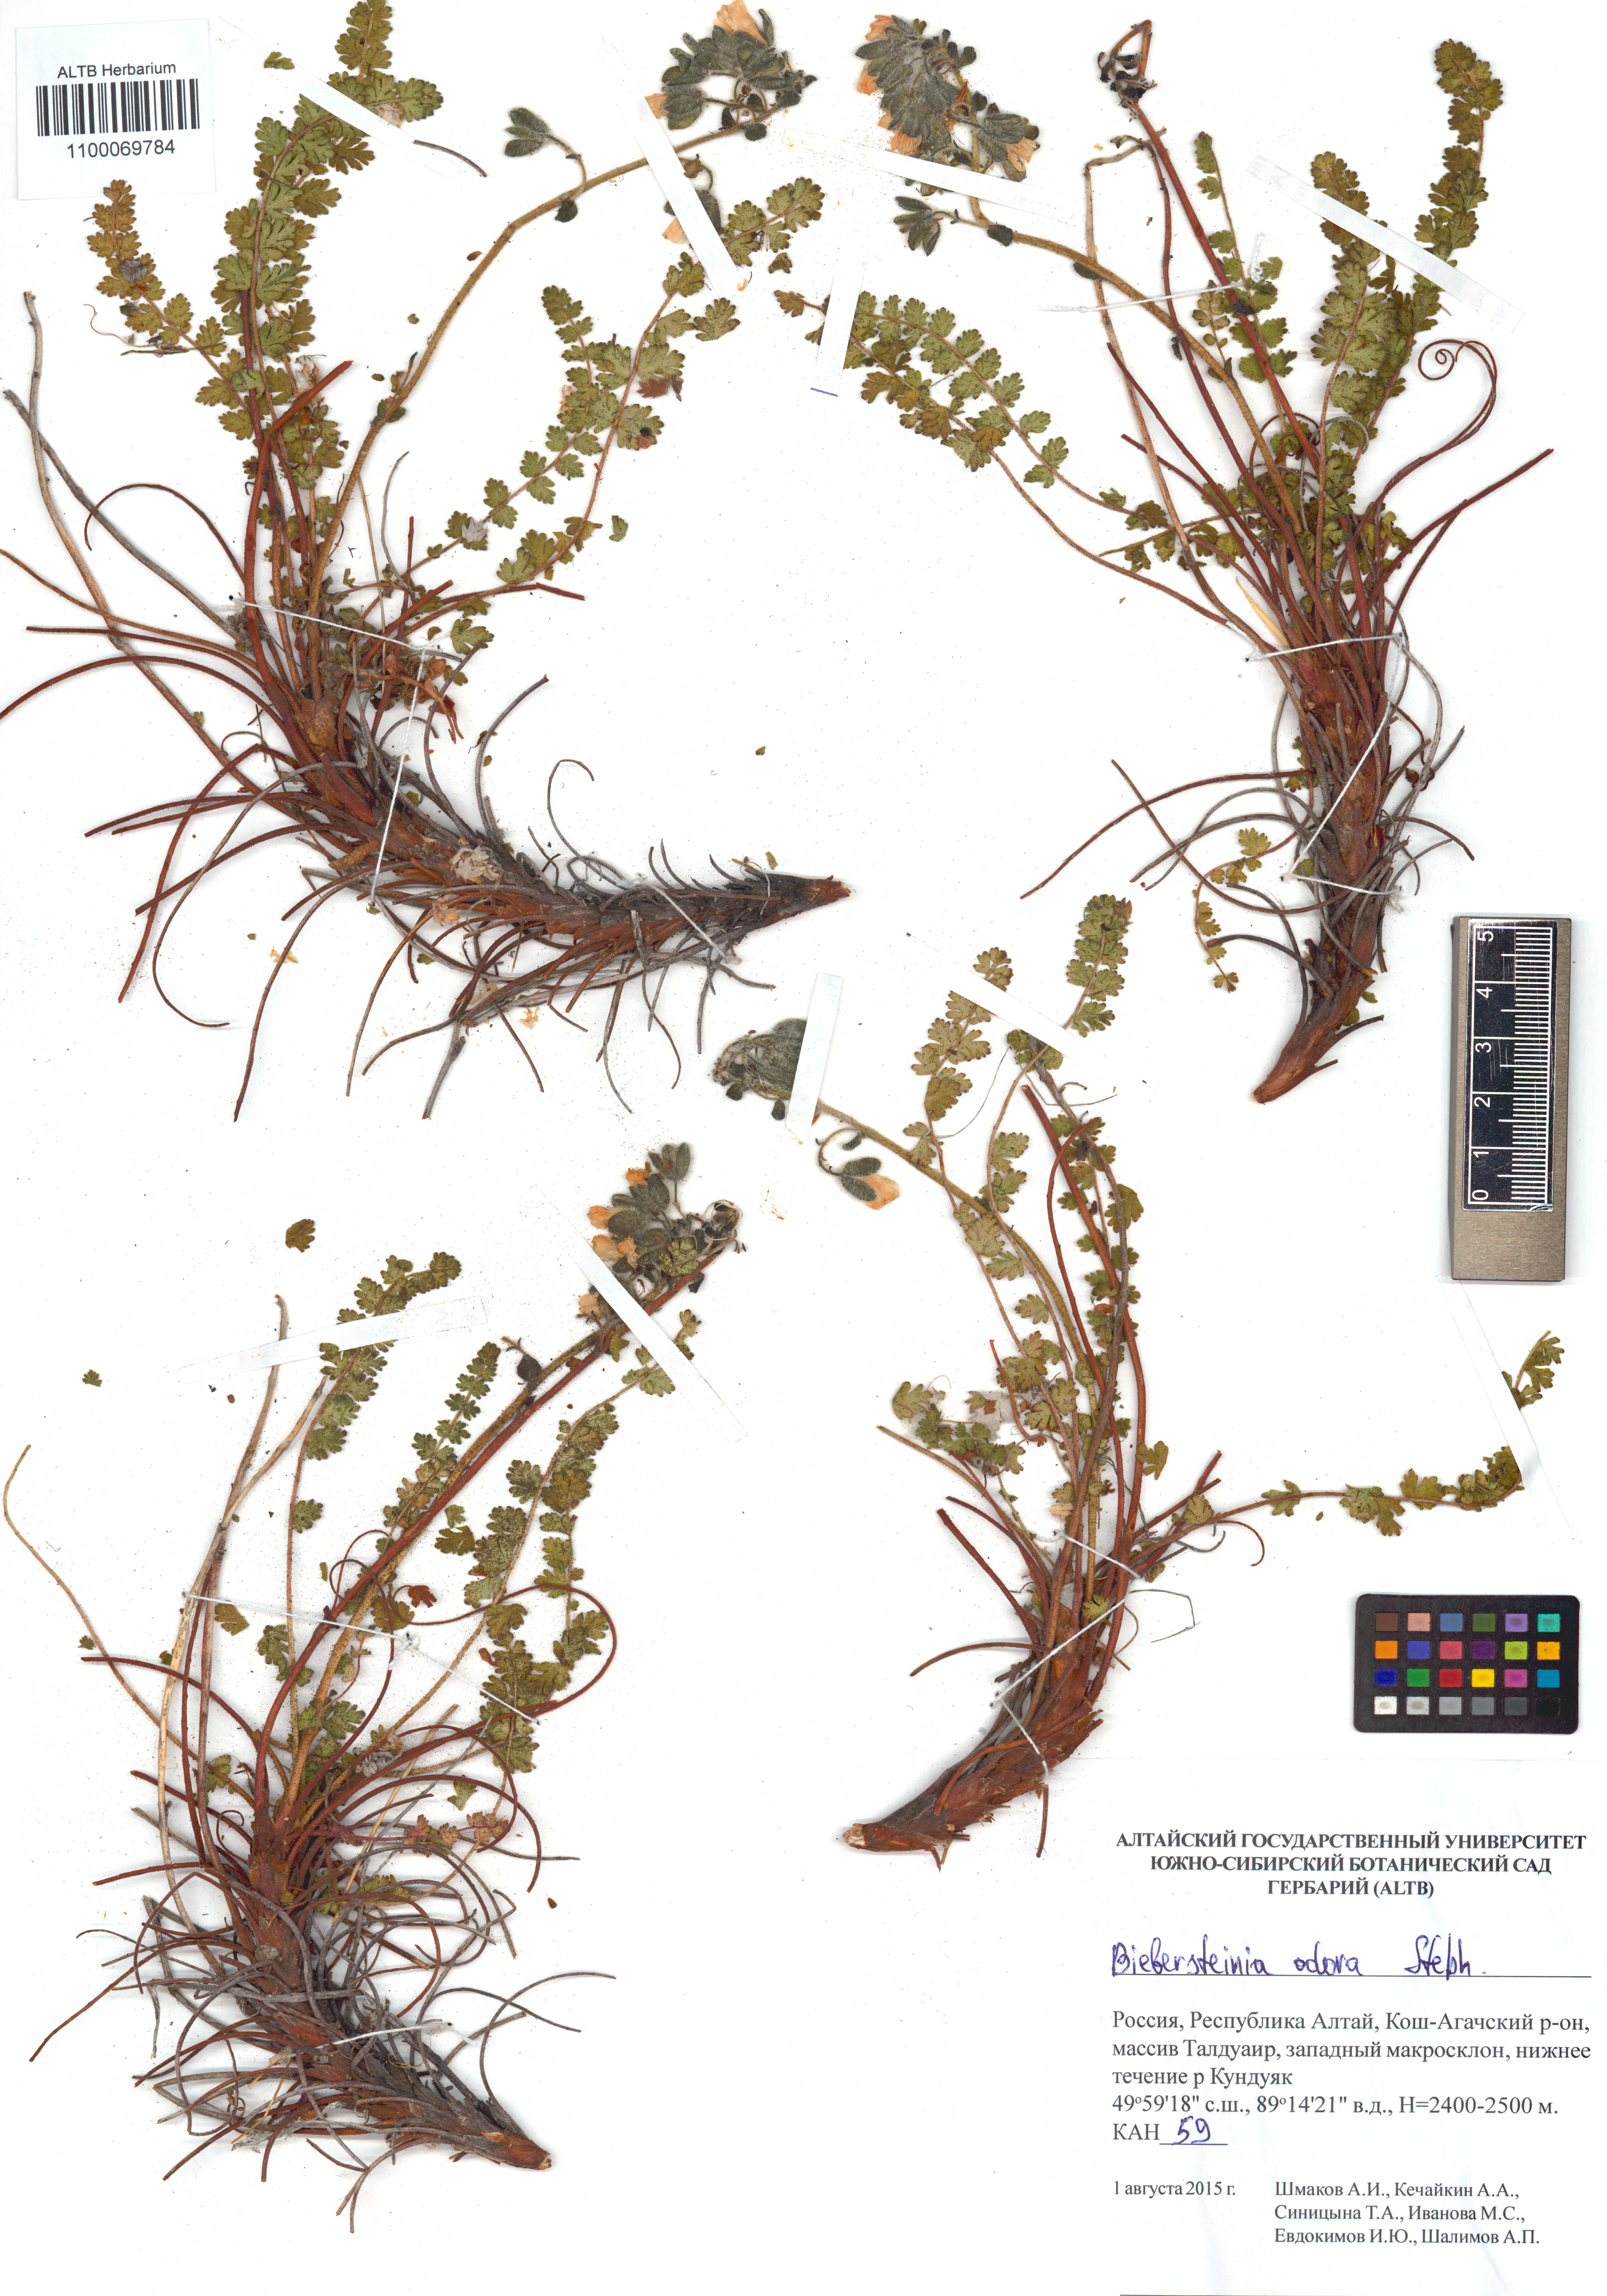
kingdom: Plantae
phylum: Tracheophyta
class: Magnoliopsida
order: Sapindales
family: Biebersteiniaceae
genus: Biebersteinia
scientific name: Biebersteinia odora
